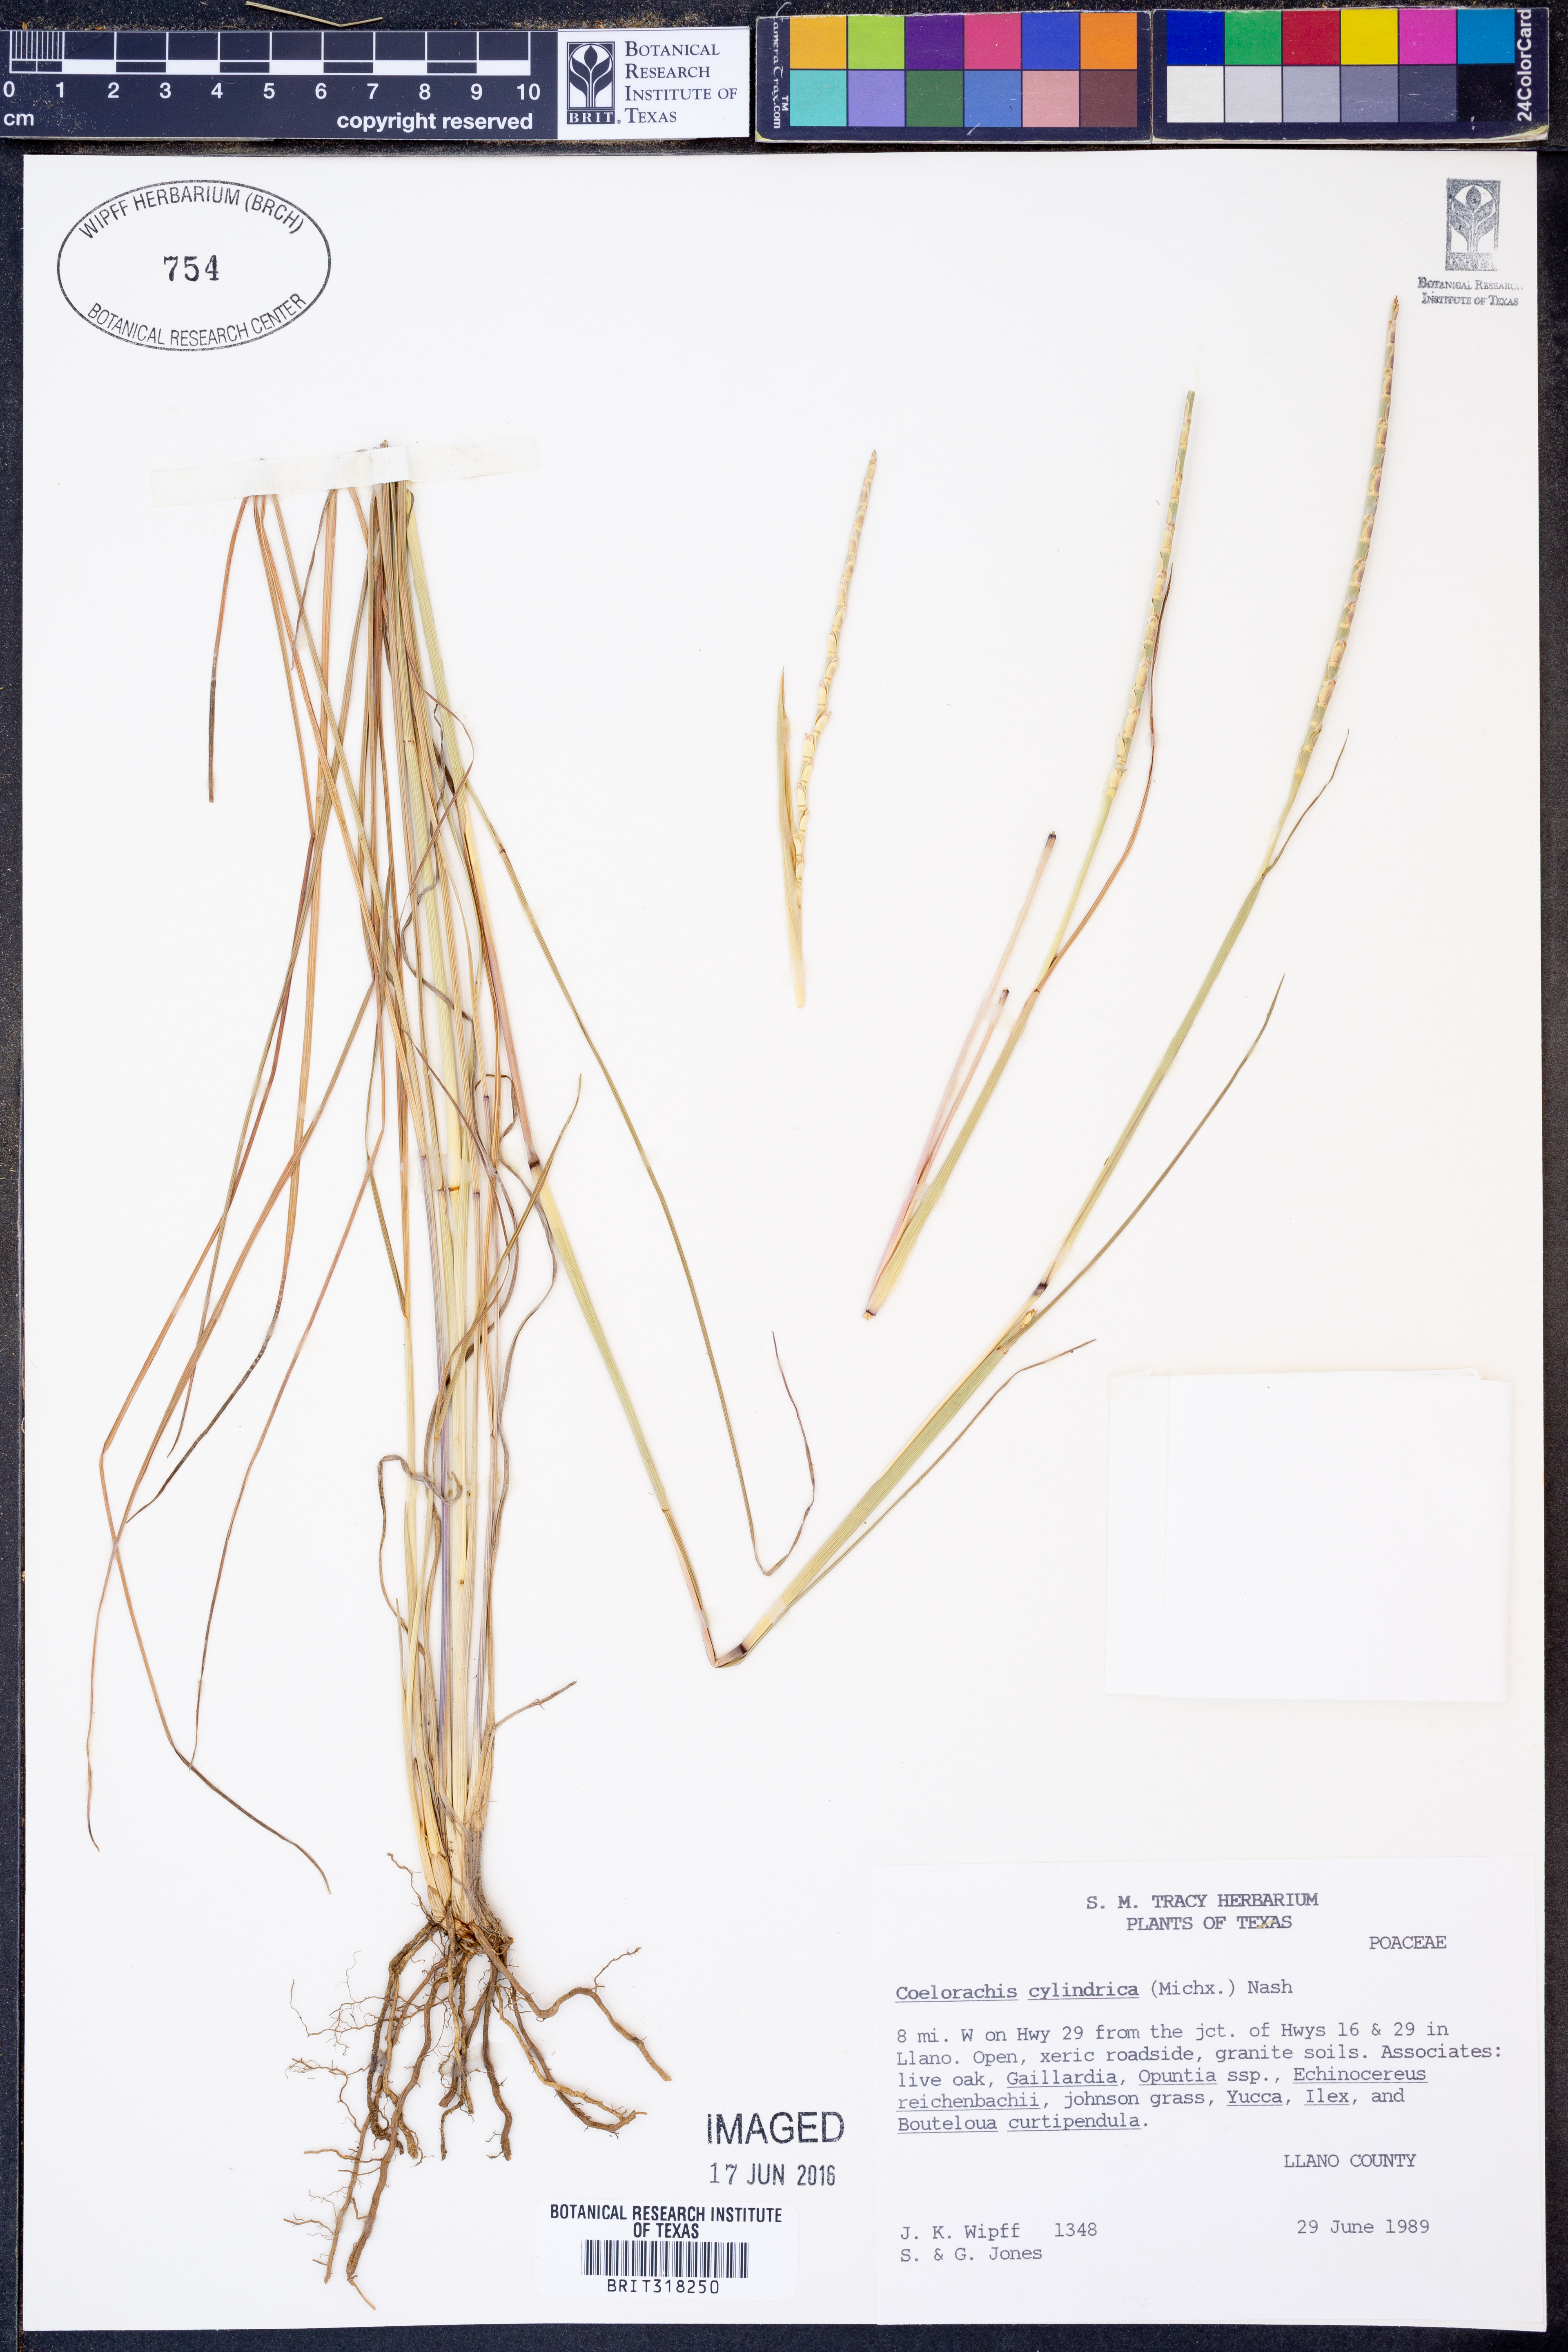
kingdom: Plantae
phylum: Tracheophyta
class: Liliopsida
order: Poales
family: Poaceae
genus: Rottboellia
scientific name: Rottboellia campestris
